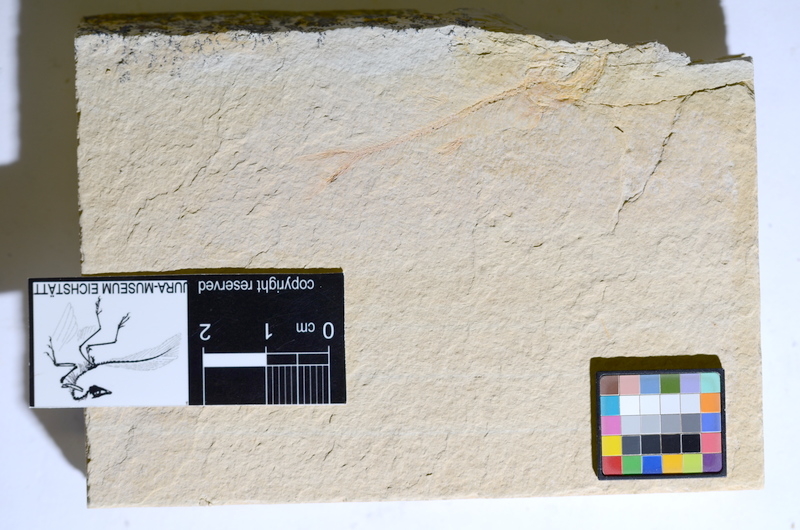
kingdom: Animalia
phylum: Chordata
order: Salmoniformes
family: Orthogonikleithridae
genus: Leptolepides
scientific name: Leptolepides
